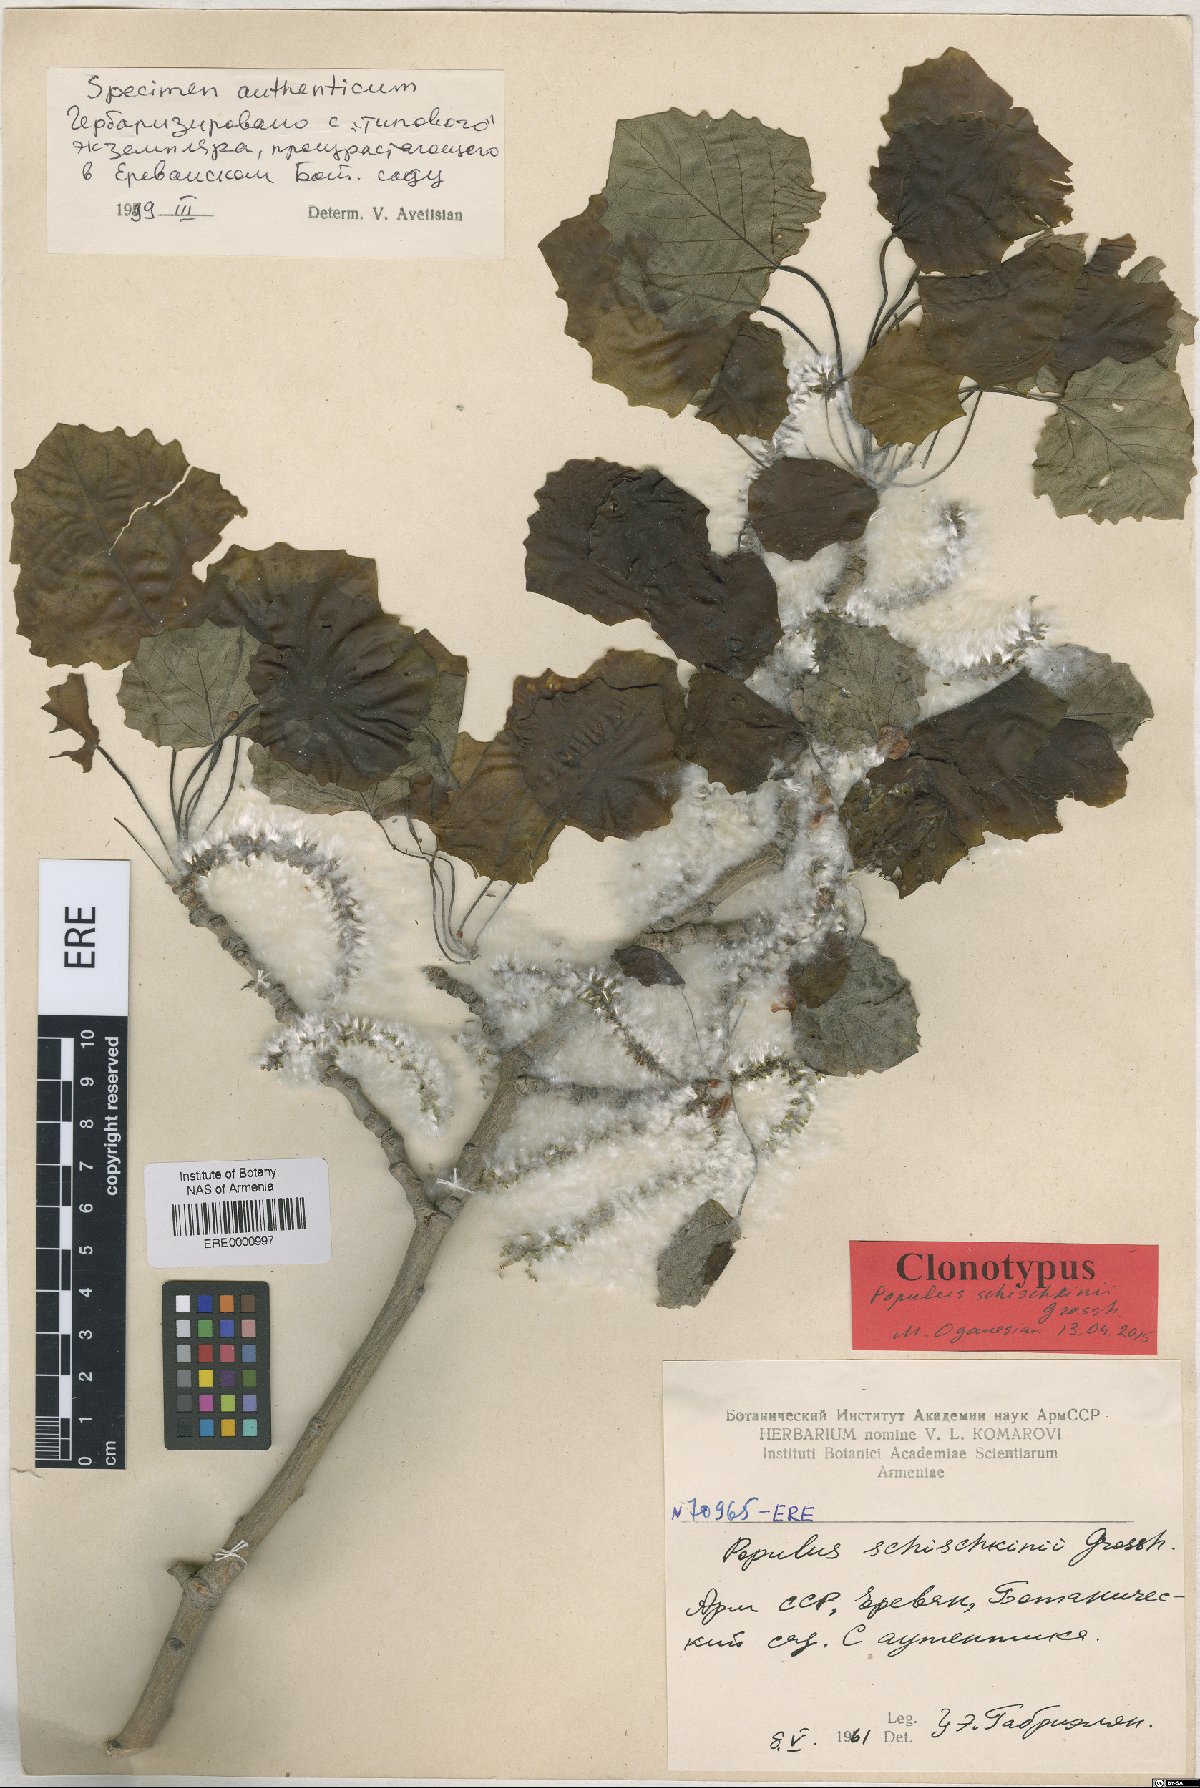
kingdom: Plantae
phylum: Tracheophyta
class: Magnoliopsida
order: Malpighiales
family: Salicaceae
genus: Populus
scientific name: Populus canescens
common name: Gray poplar
